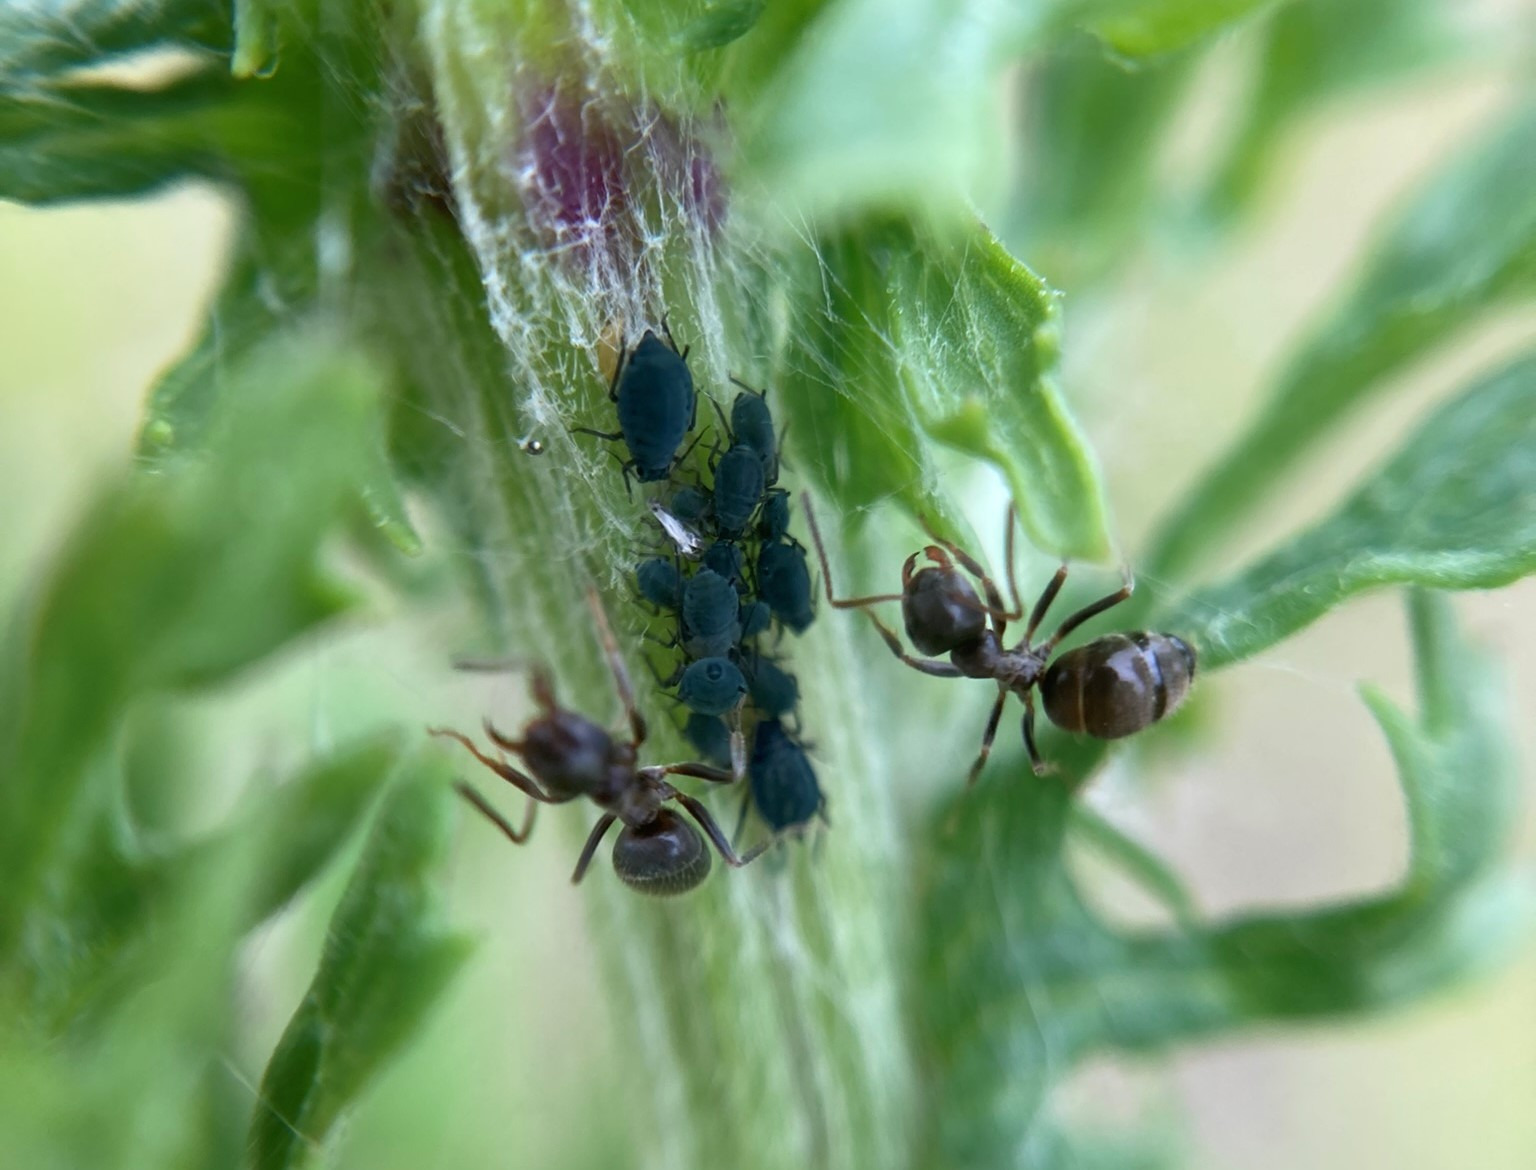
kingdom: Animalia
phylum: Arthropoda
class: Insecta
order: Hemiptera
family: Aphididae
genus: Aphis
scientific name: Aphis jacobaeae
